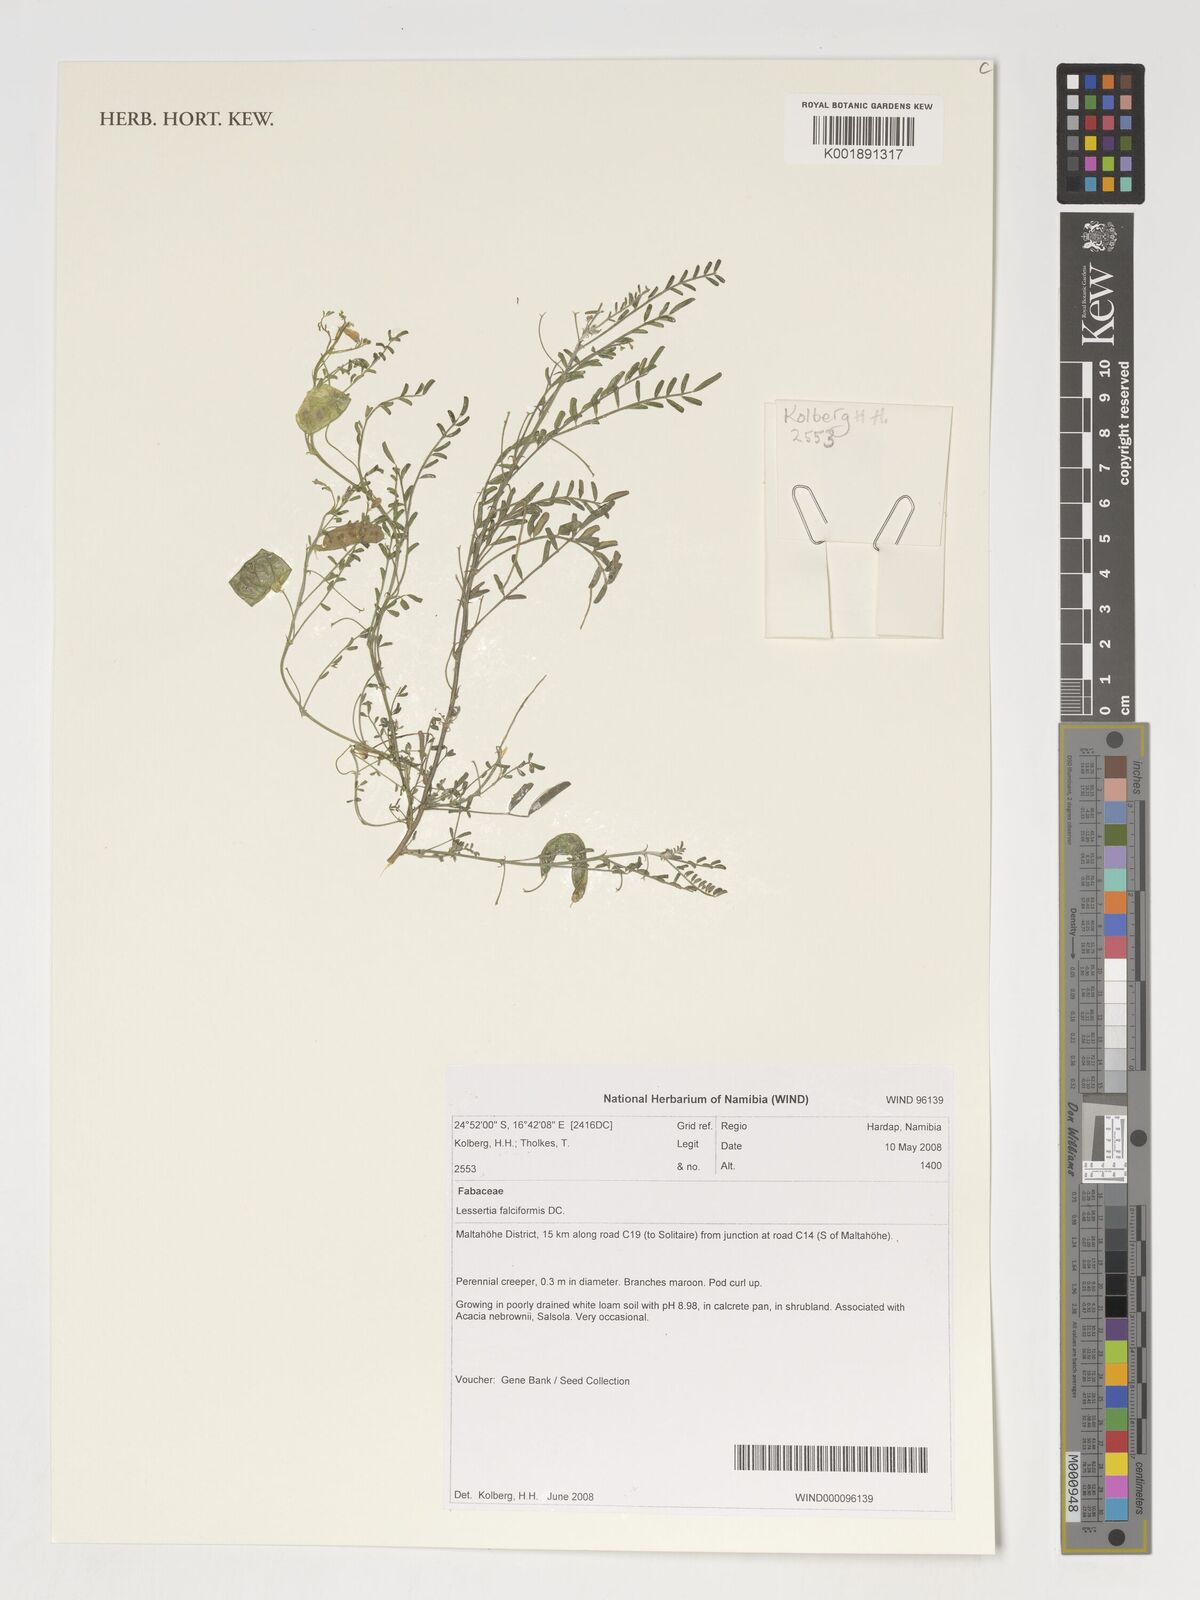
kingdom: Plantae
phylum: Tracheophyta
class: Magnoliopsida
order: Fabales
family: Fabaceae
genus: Lessertia
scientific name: Lessertia falciformis
